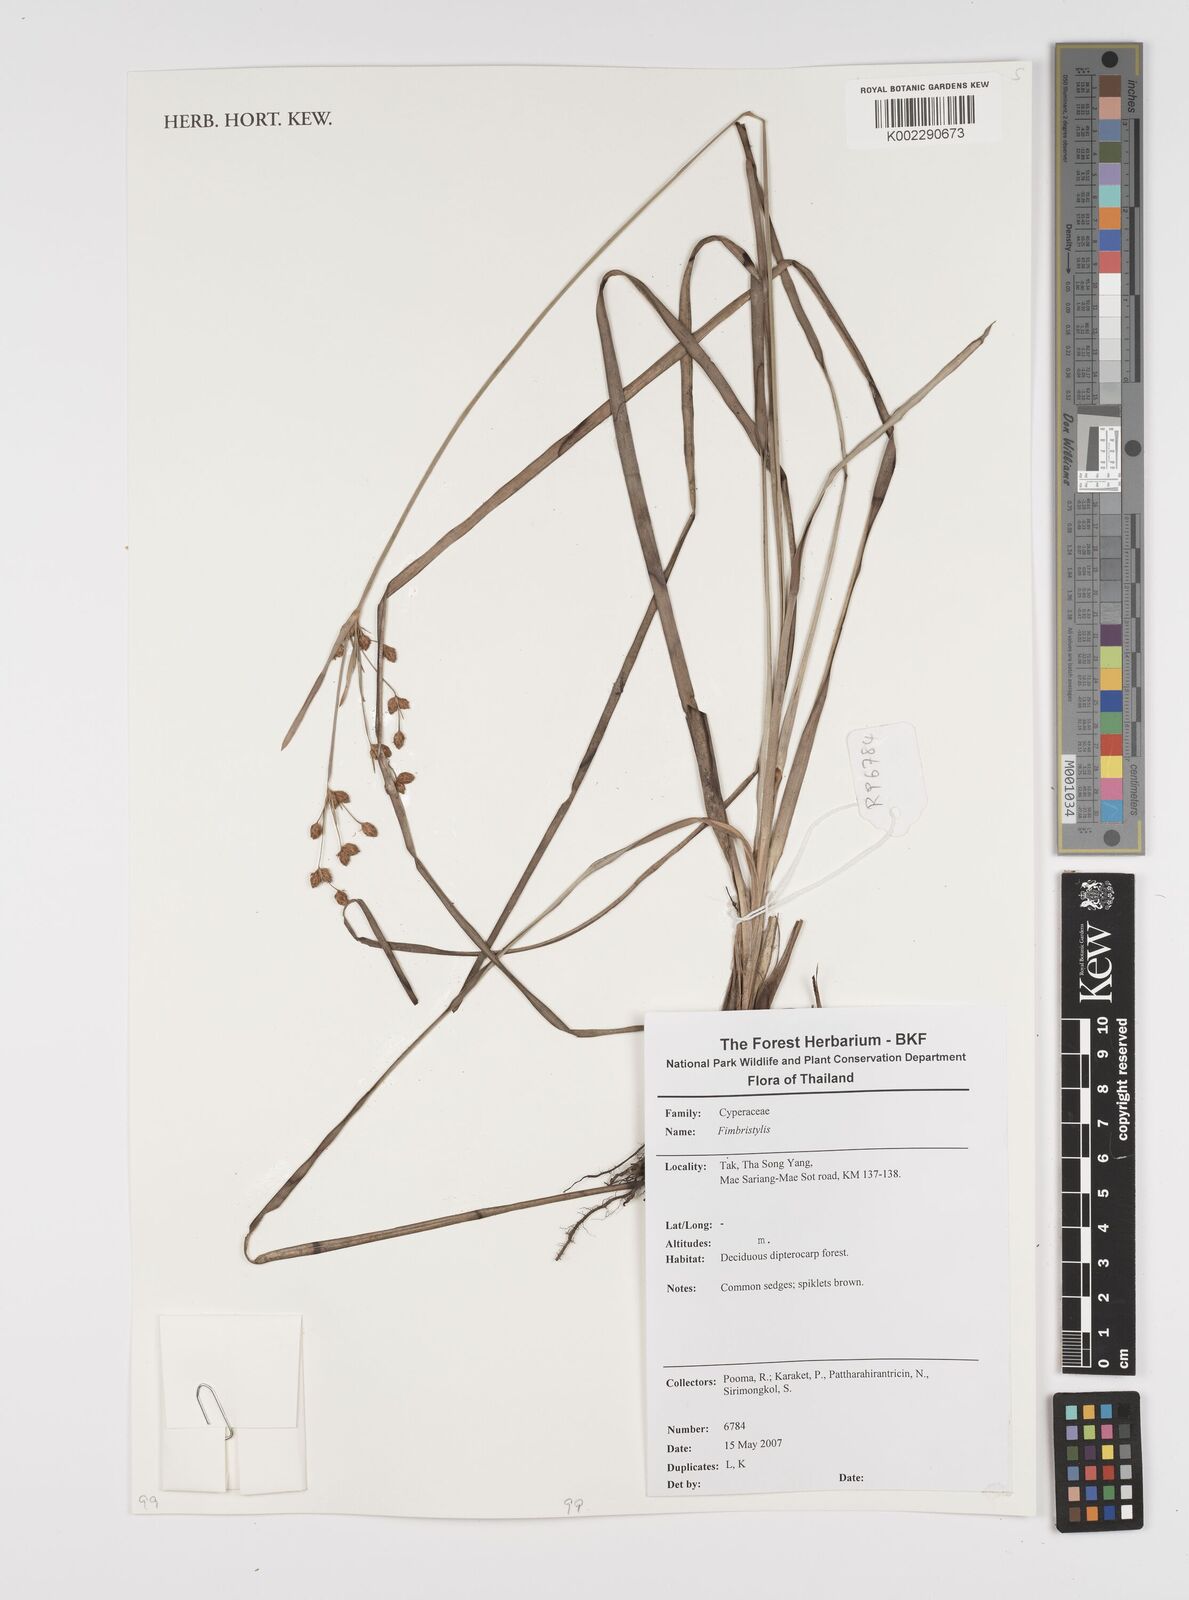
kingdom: Plantae
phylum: Tracheophyta
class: Liliopsida
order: Poales
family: Cyperaceae
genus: Fimbristylis
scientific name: Fimbristylis
